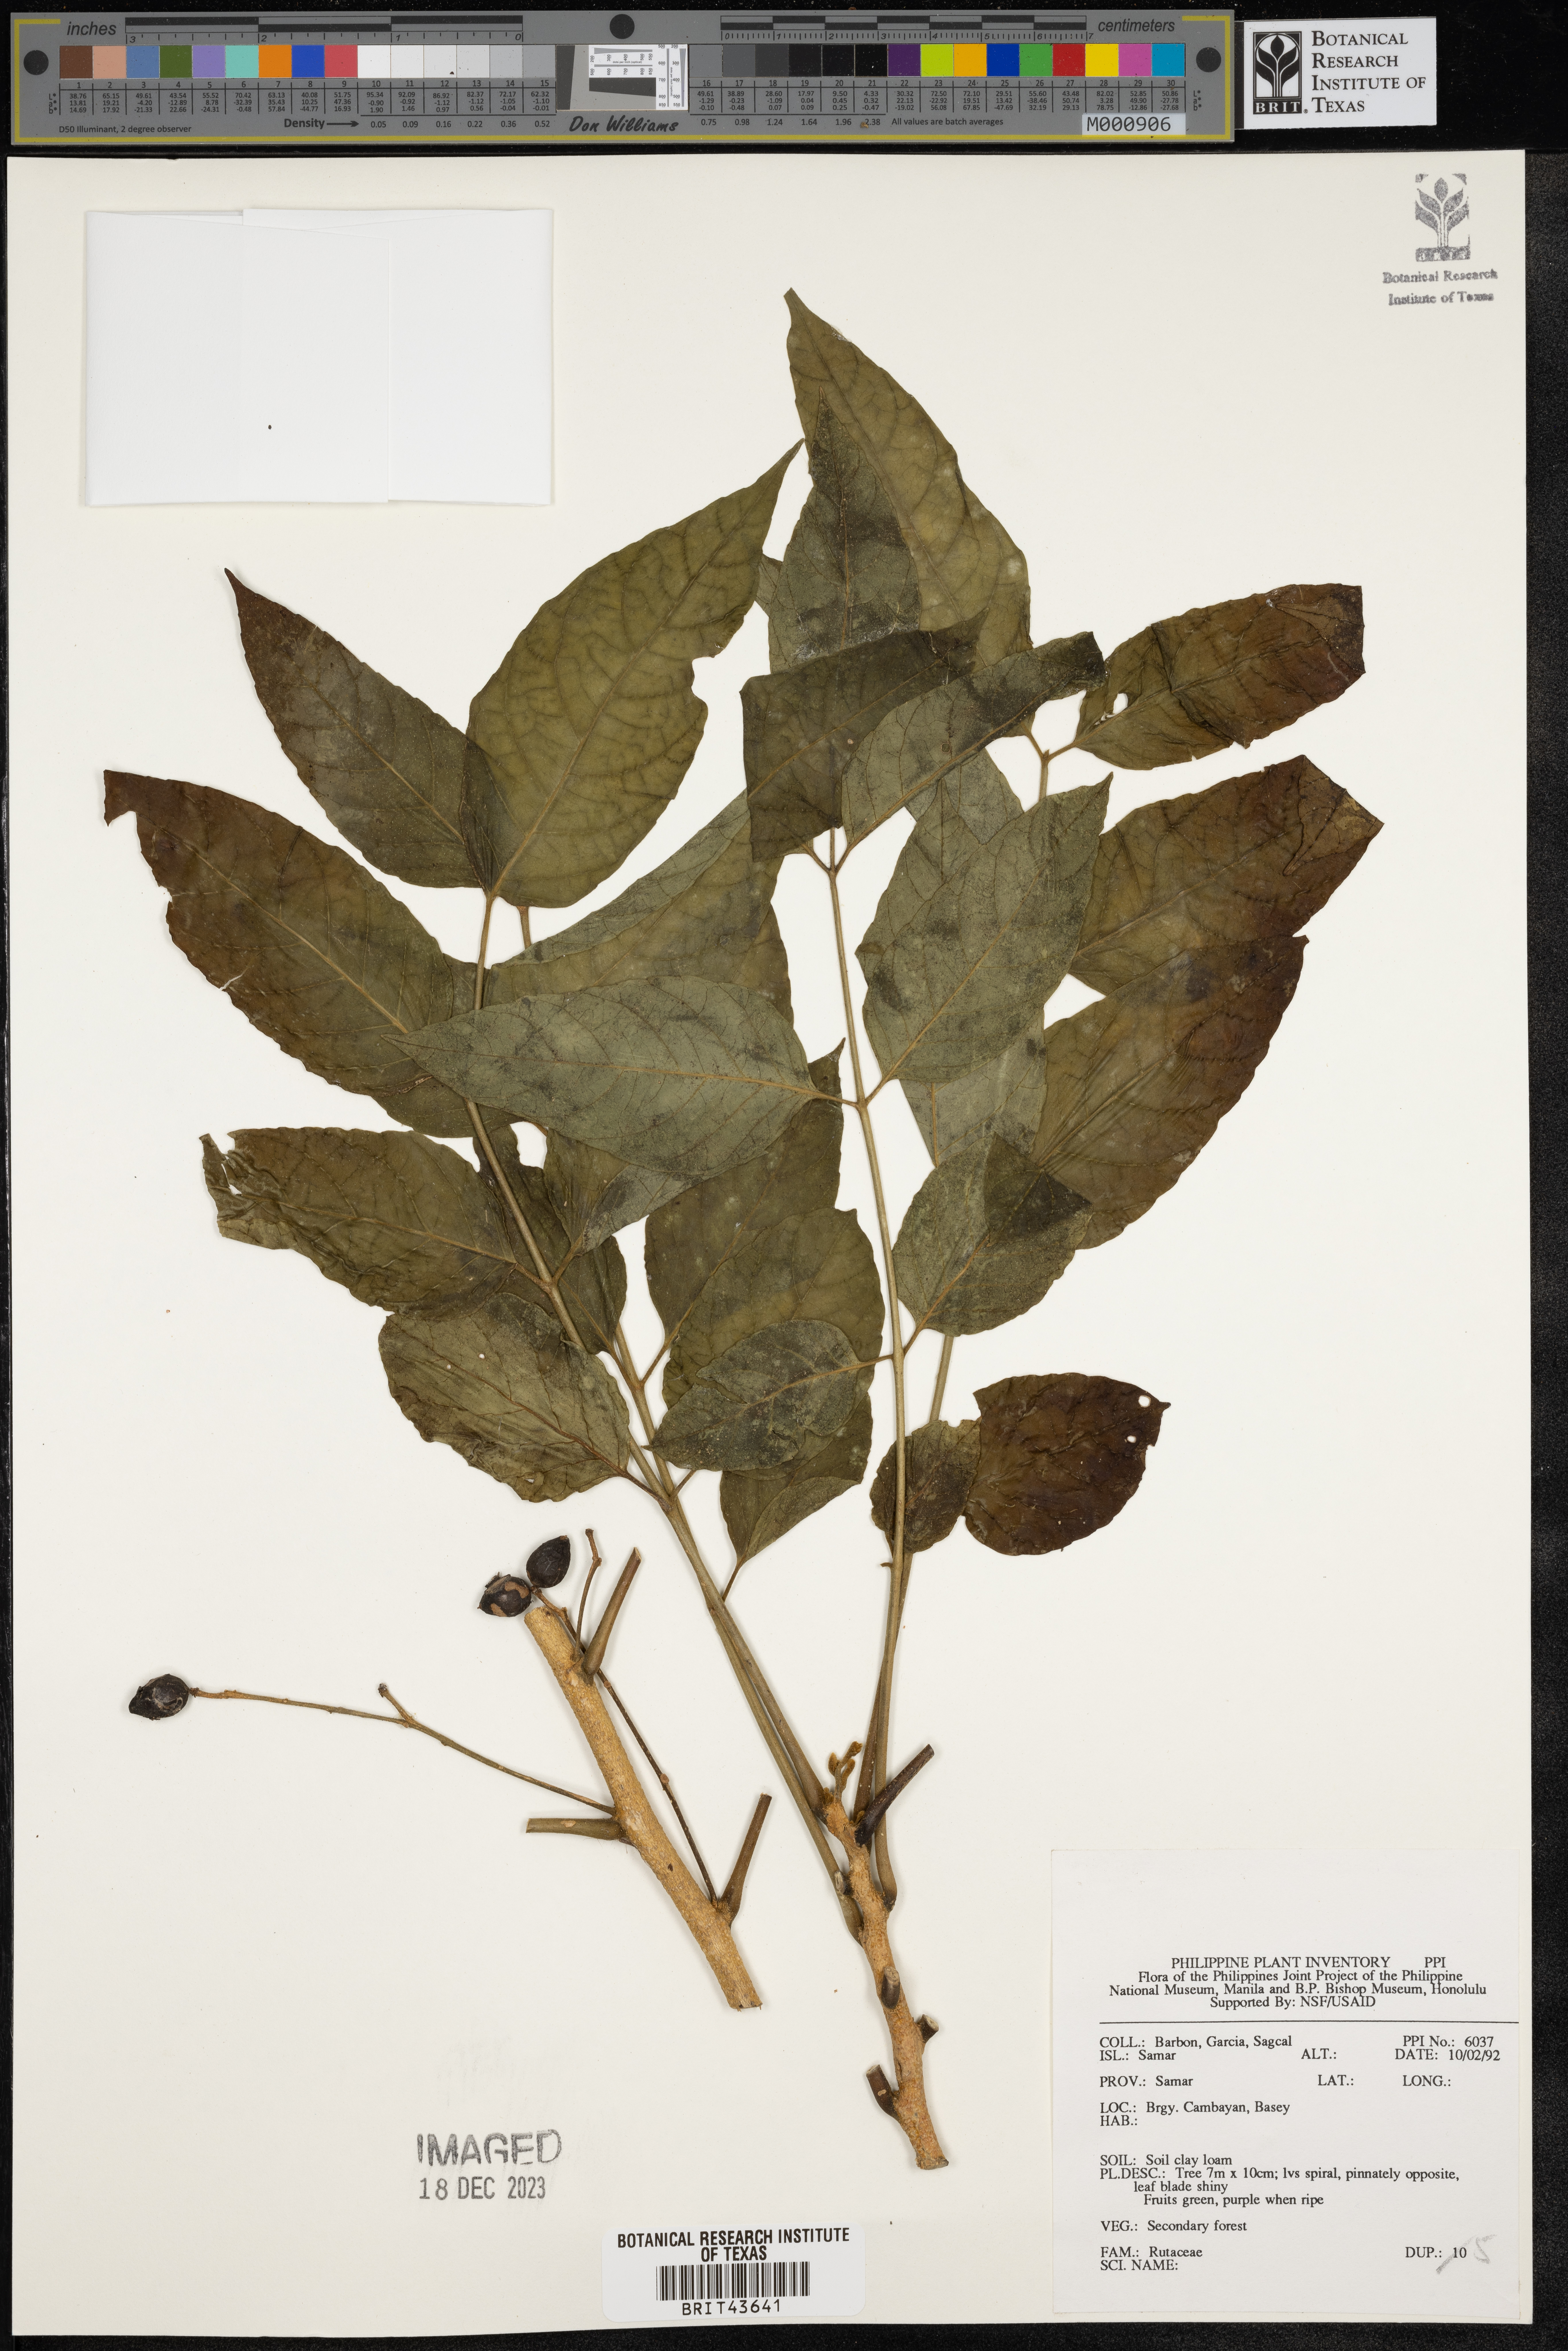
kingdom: Plantae
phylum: Tracheophyta
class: Magnoliopsida
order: Sapindales
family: Rutaceae
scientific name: Rutaceae
